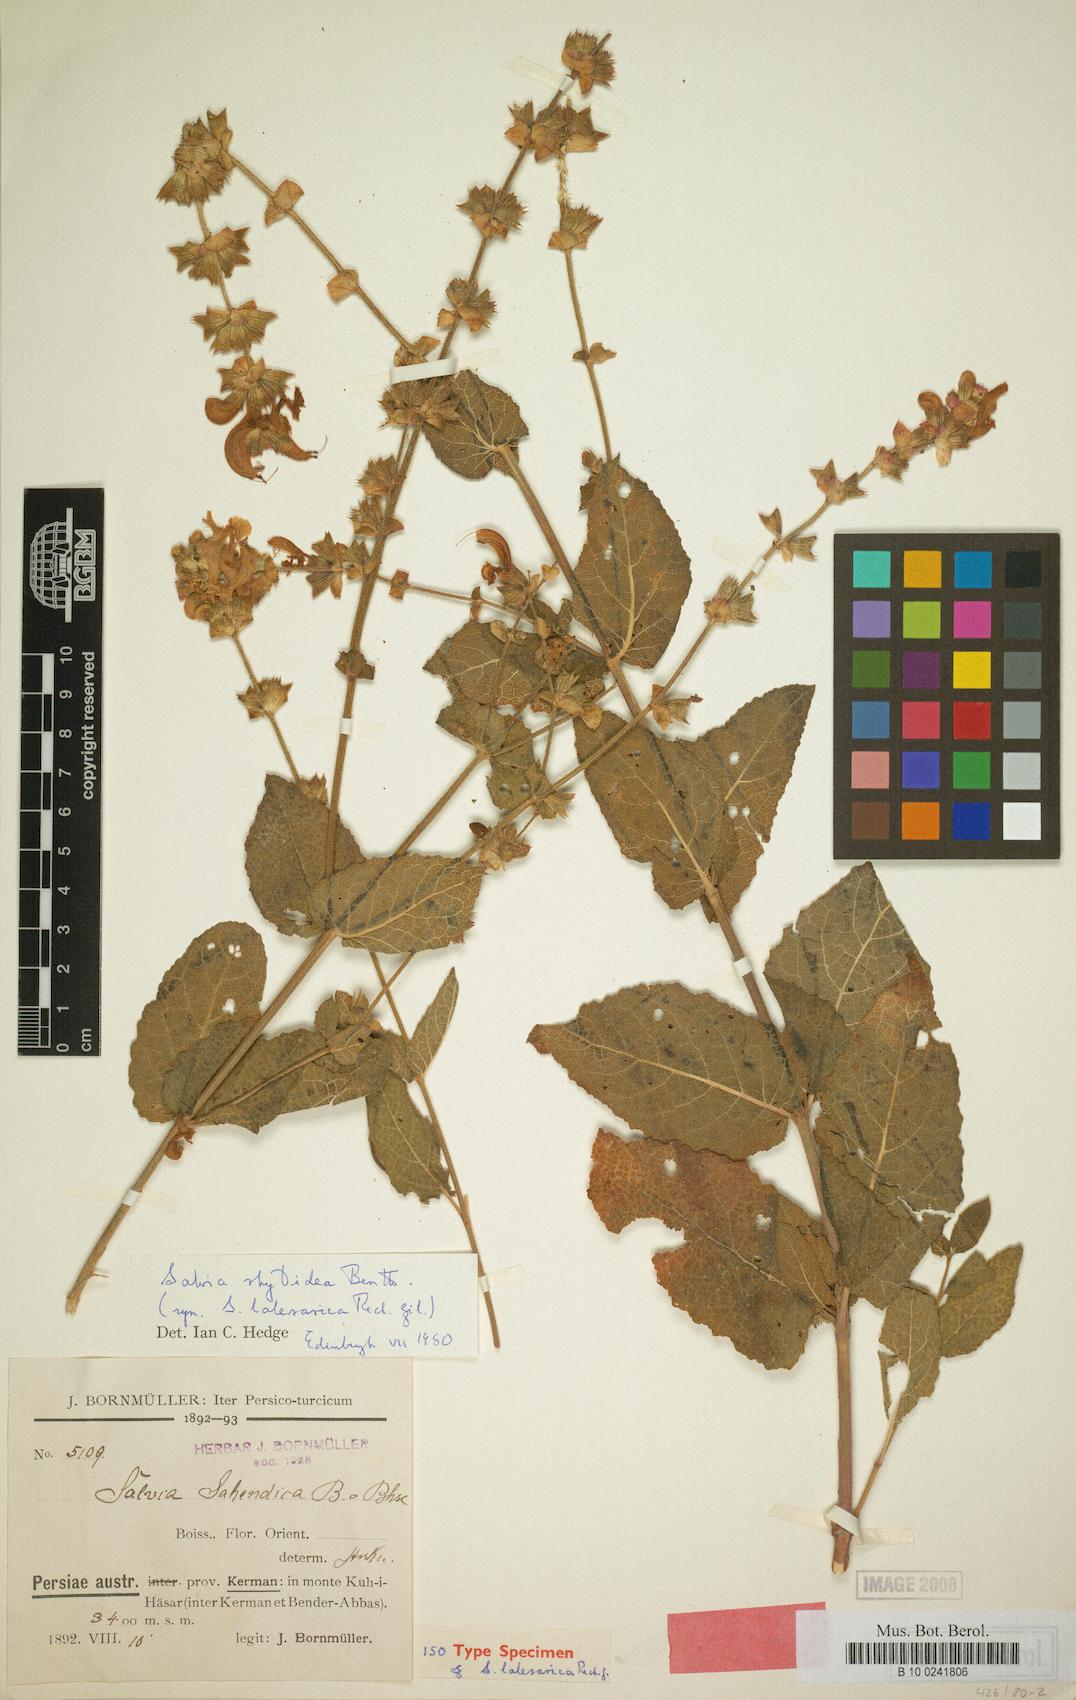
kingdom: Plantae
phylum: Tracheophyta
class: Magnoliopsida
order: Lamiales
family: Lamiaceae
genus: Salvia
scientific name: Salvia rhytidea
